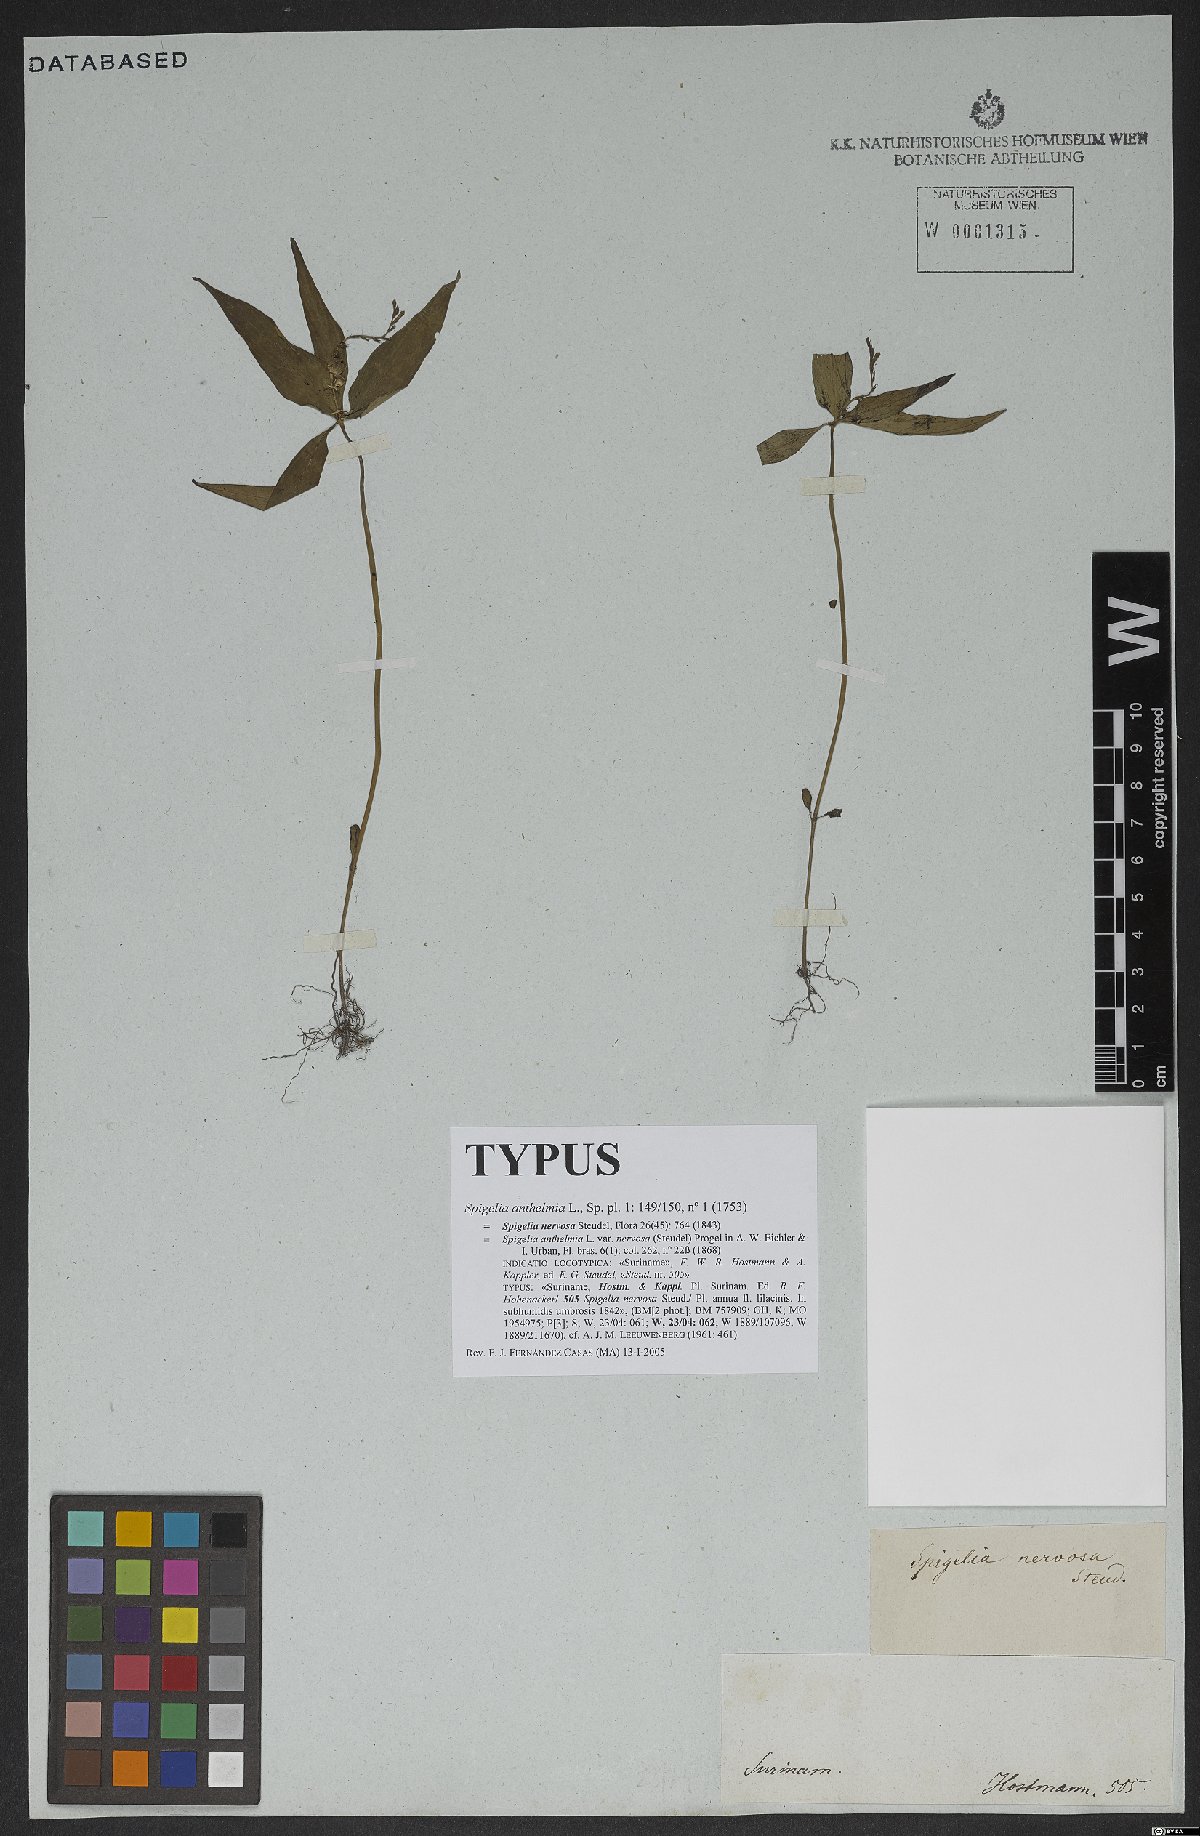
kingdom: Plantae
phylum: Tracheophyta
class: Magnoliopsida
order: Gentianales
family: Loganiaceae
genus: Spigelia
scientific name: Spigelia anthelmia
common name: West indian-pink
